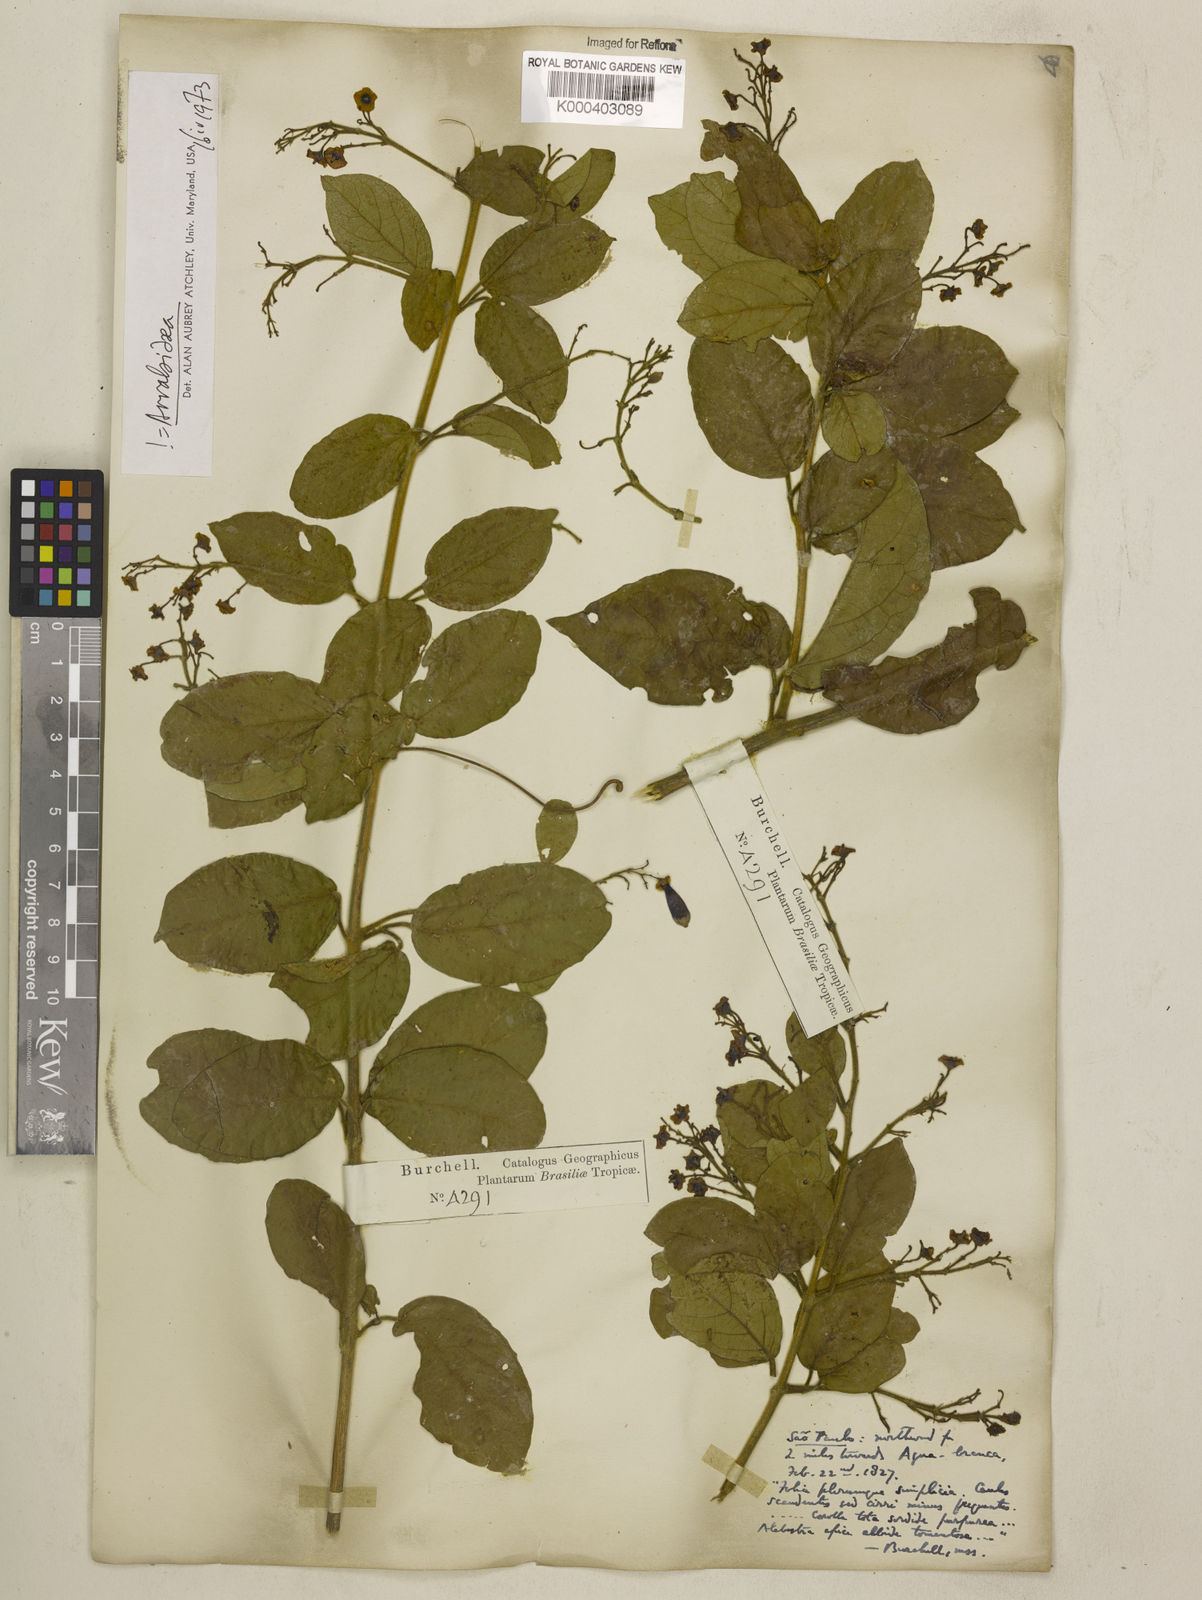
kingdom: Plantae
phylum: Tracheophyta
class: Magnoliopsida
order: Lamiales
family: Bignoniaceae
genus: Fridericia
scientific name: Fridericia samydoides
